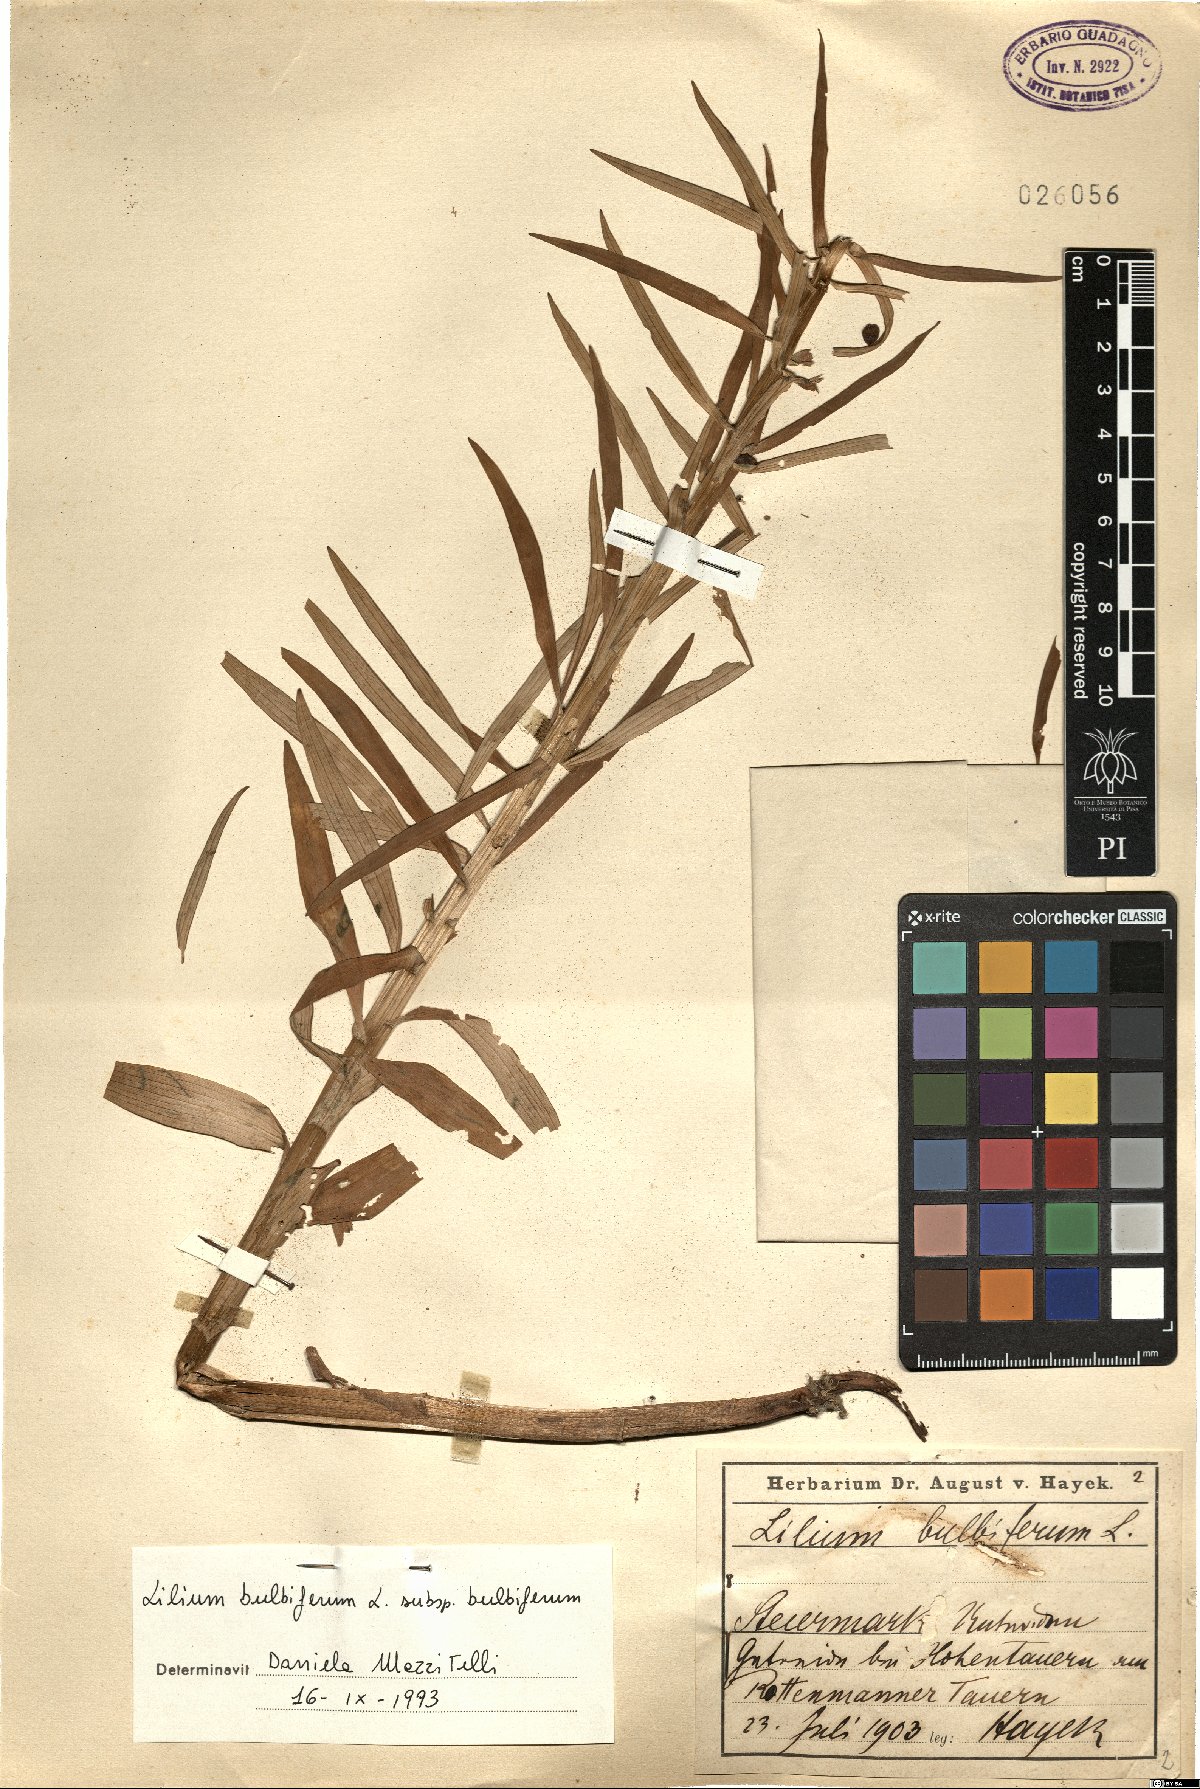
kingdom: Plantae
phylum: Tracheophyta
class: Liliopsida
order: Liliales
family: Liliaceae
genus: Lilium
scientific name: Lilium bulbiferum
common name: Orange lily
